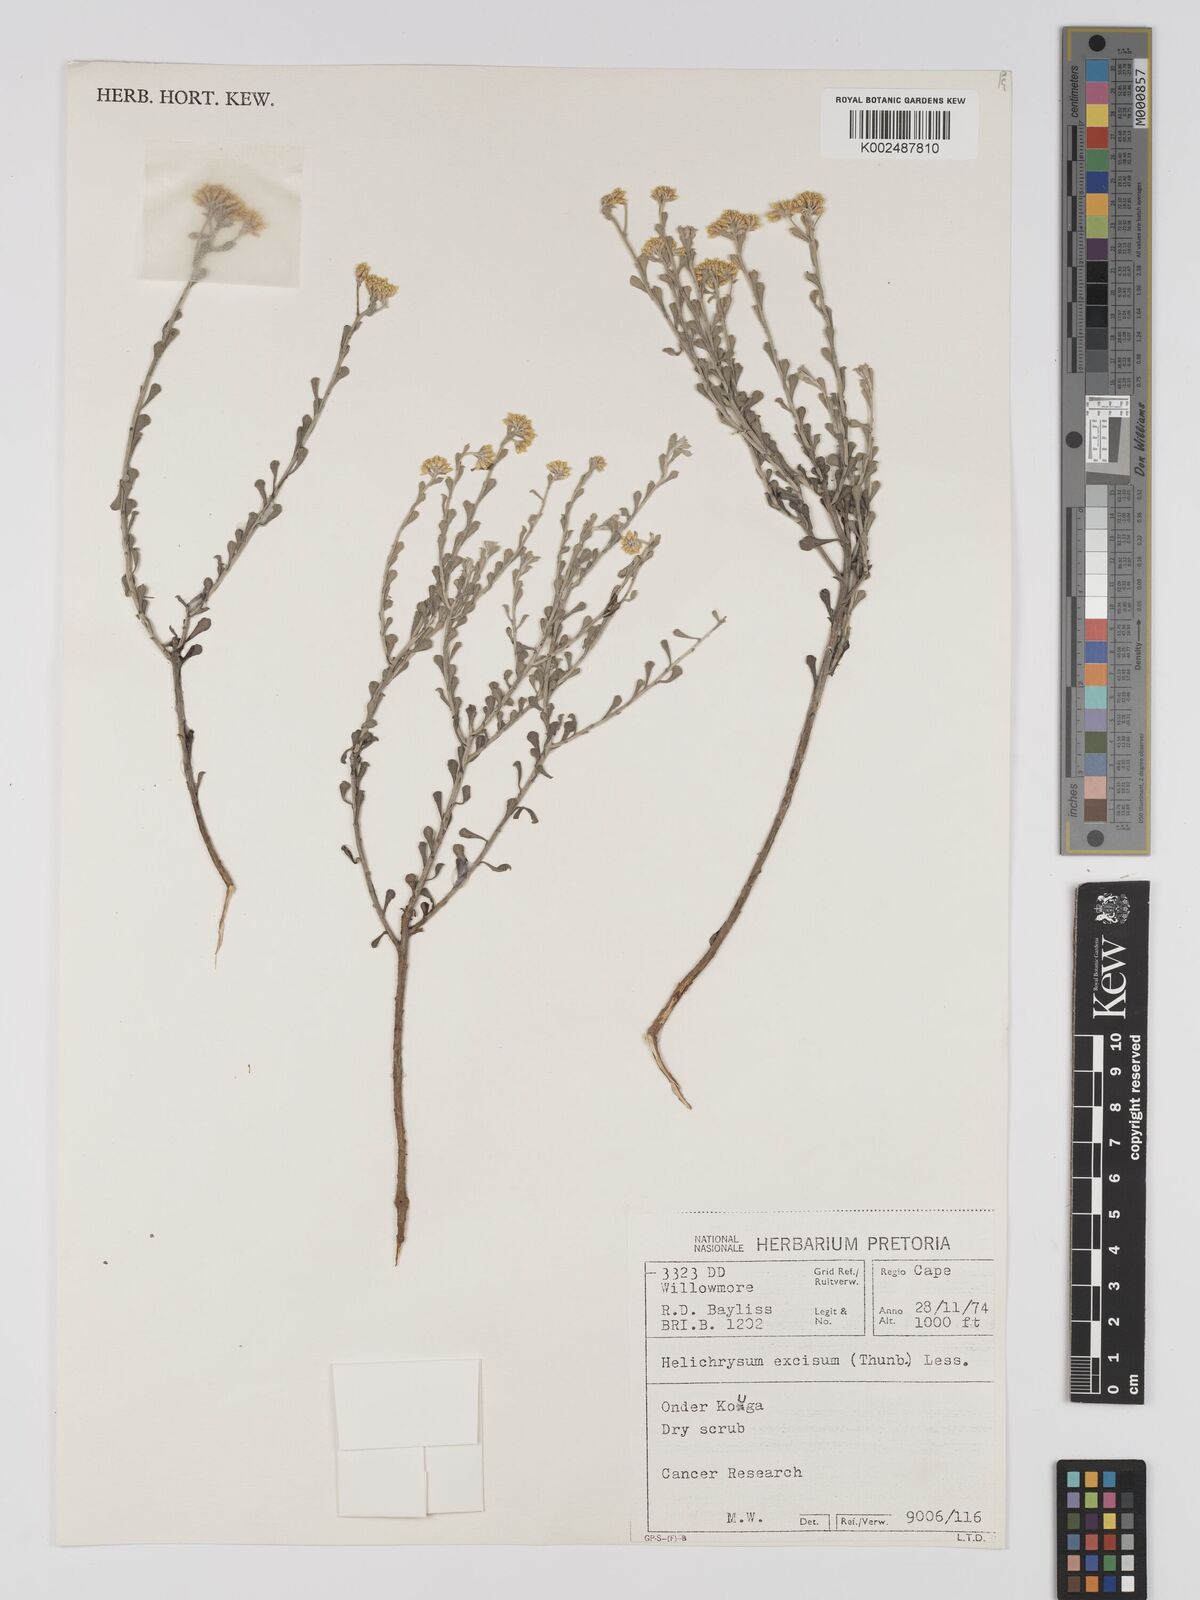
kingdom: Plantae
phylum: Tracheophyta
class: Magnoliopsida
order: Asterales
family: Asteraceae
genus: Helichrysum
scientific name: Helichrysum excisum
